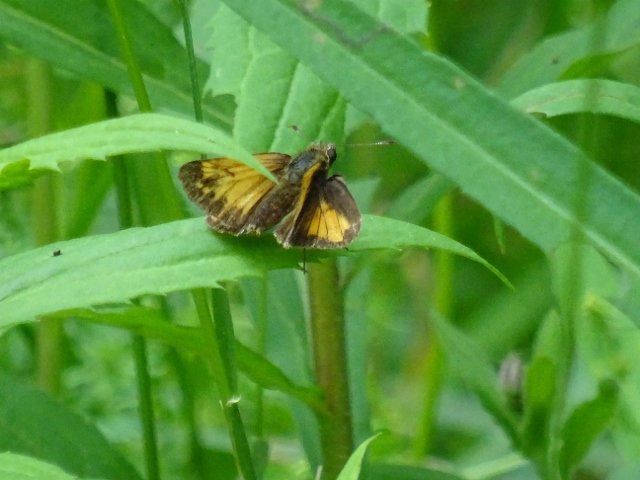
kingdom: Animalia
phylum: Arthropoda
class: Insecta
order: Lepidoptera
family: Hesperiidae
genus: Lon
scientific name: Lon hobomok
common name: Hobomok Skipper
